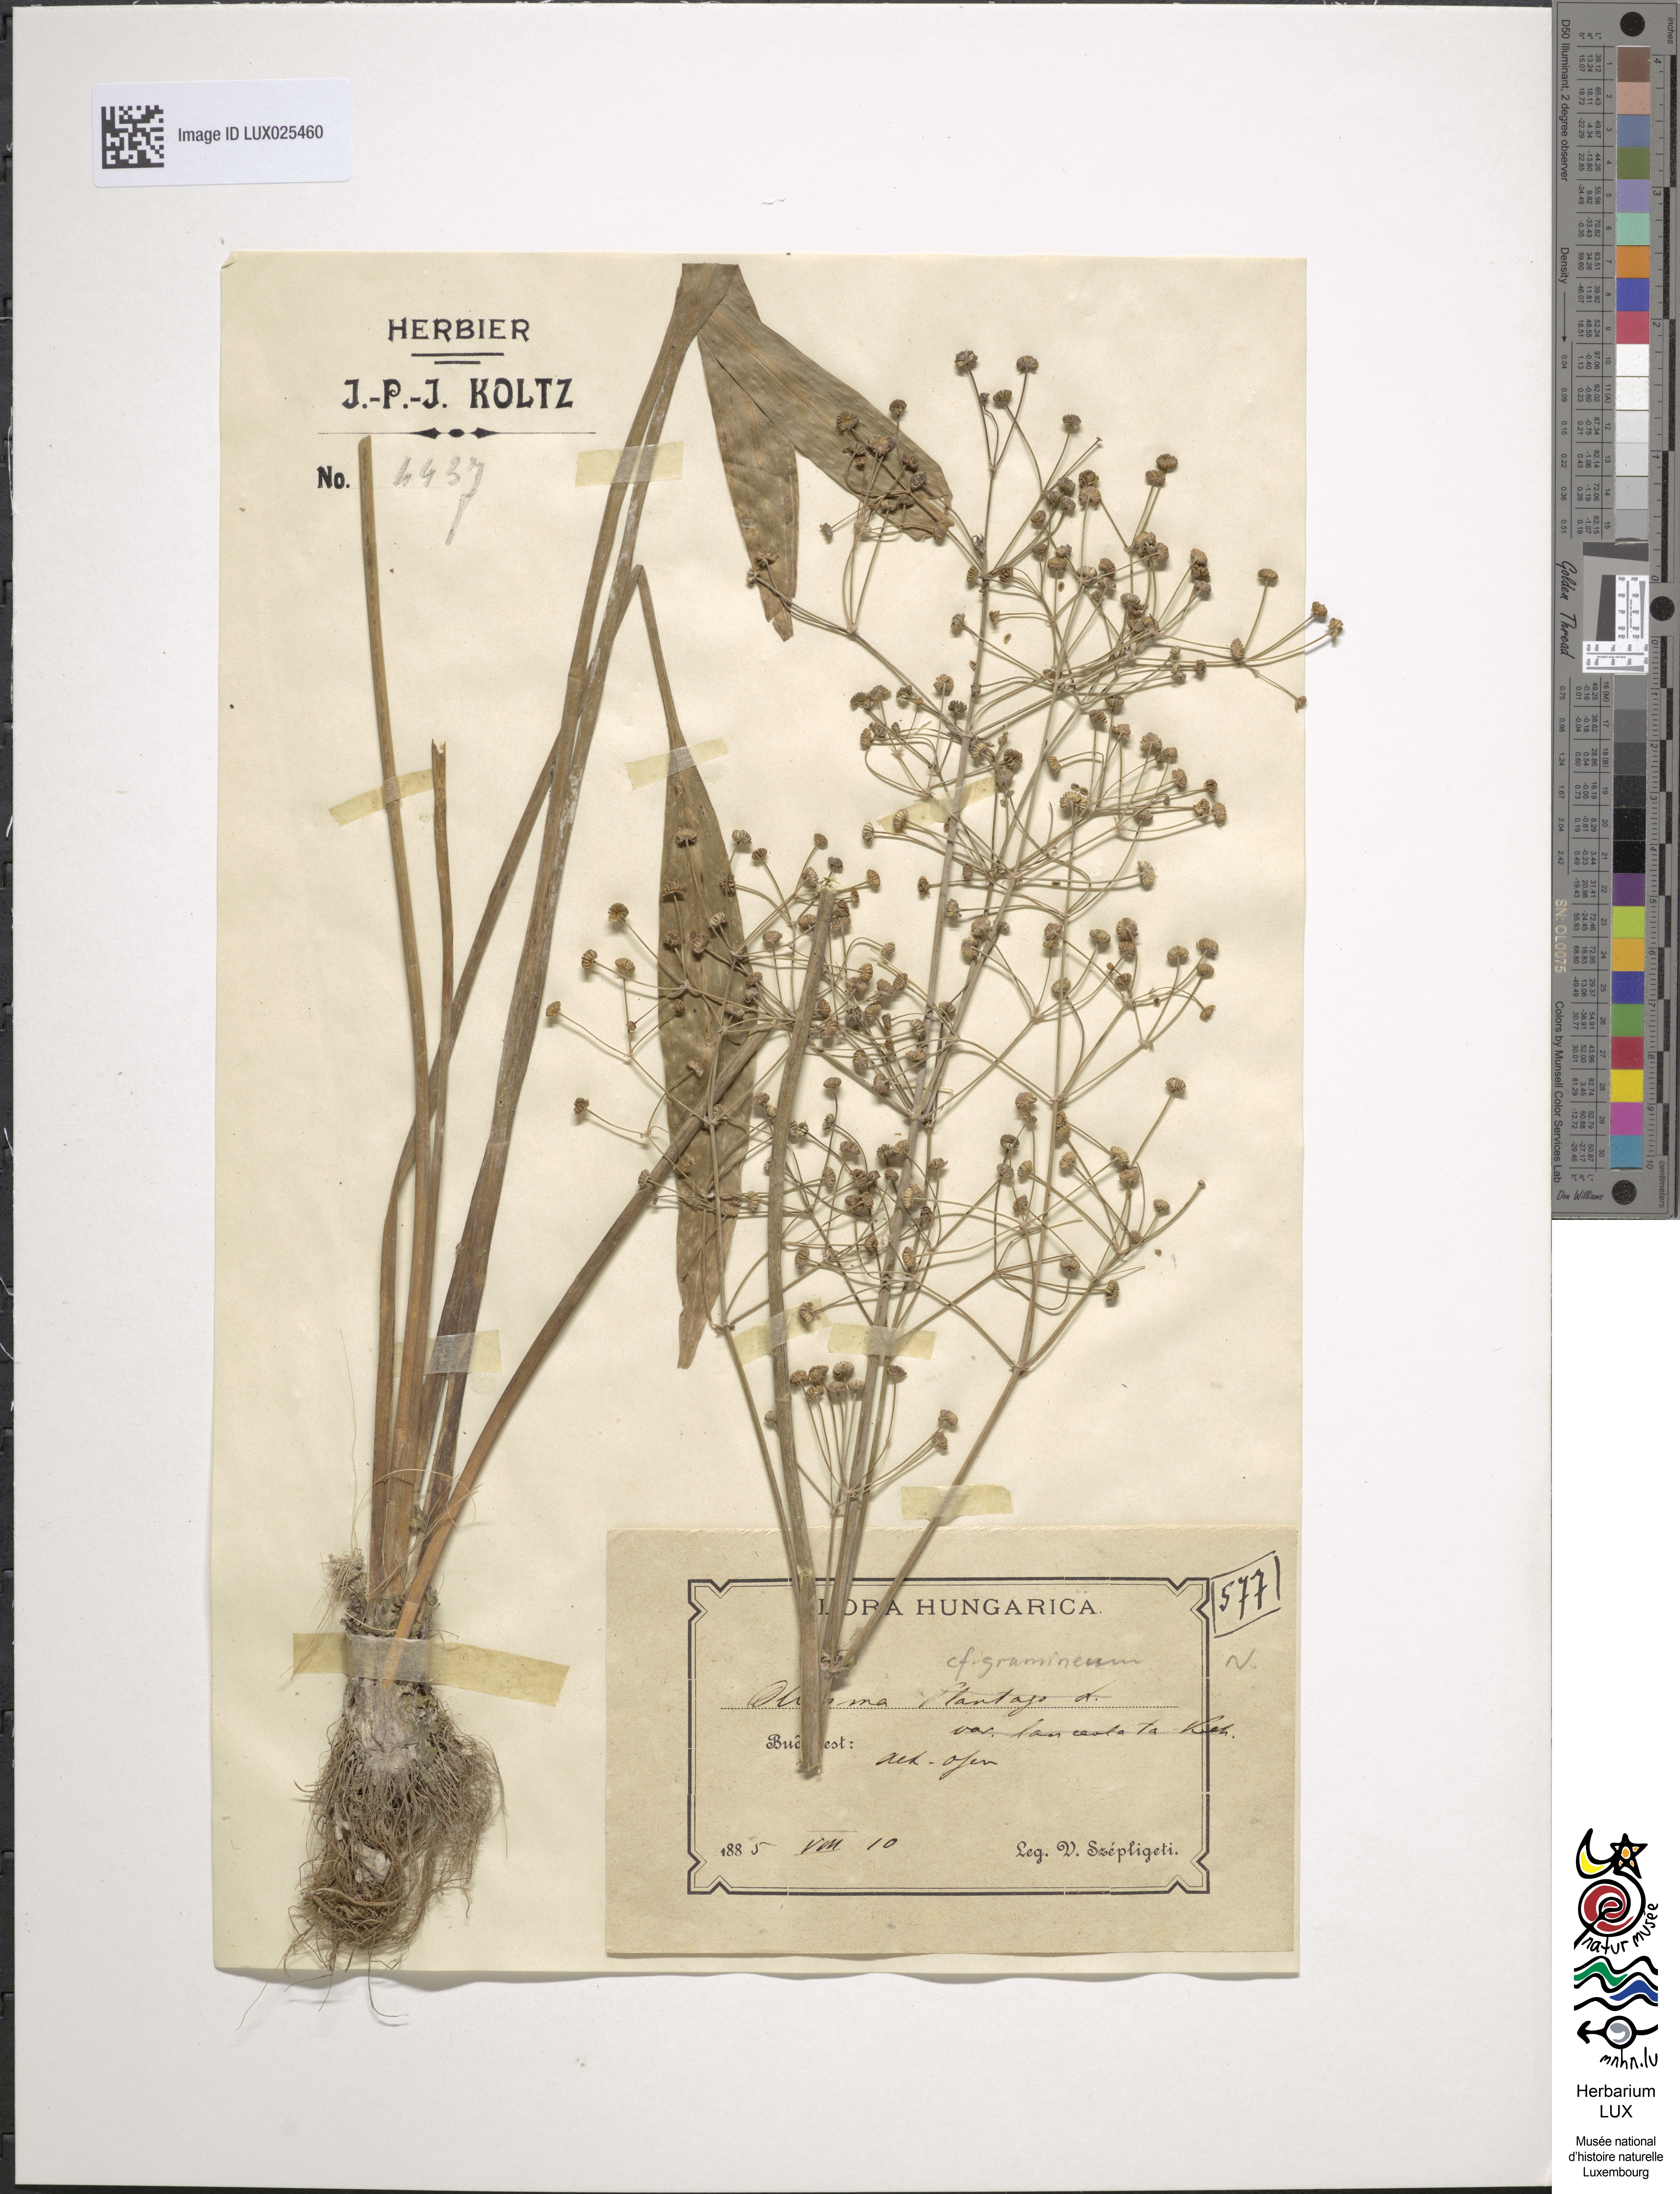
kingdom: Plantae
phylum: Tracheophyta
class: Liliopsida
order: Alismatales
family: Alismataceae
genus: Alisma
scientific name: Alisma plantago-aquatica
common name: Water-plantain
